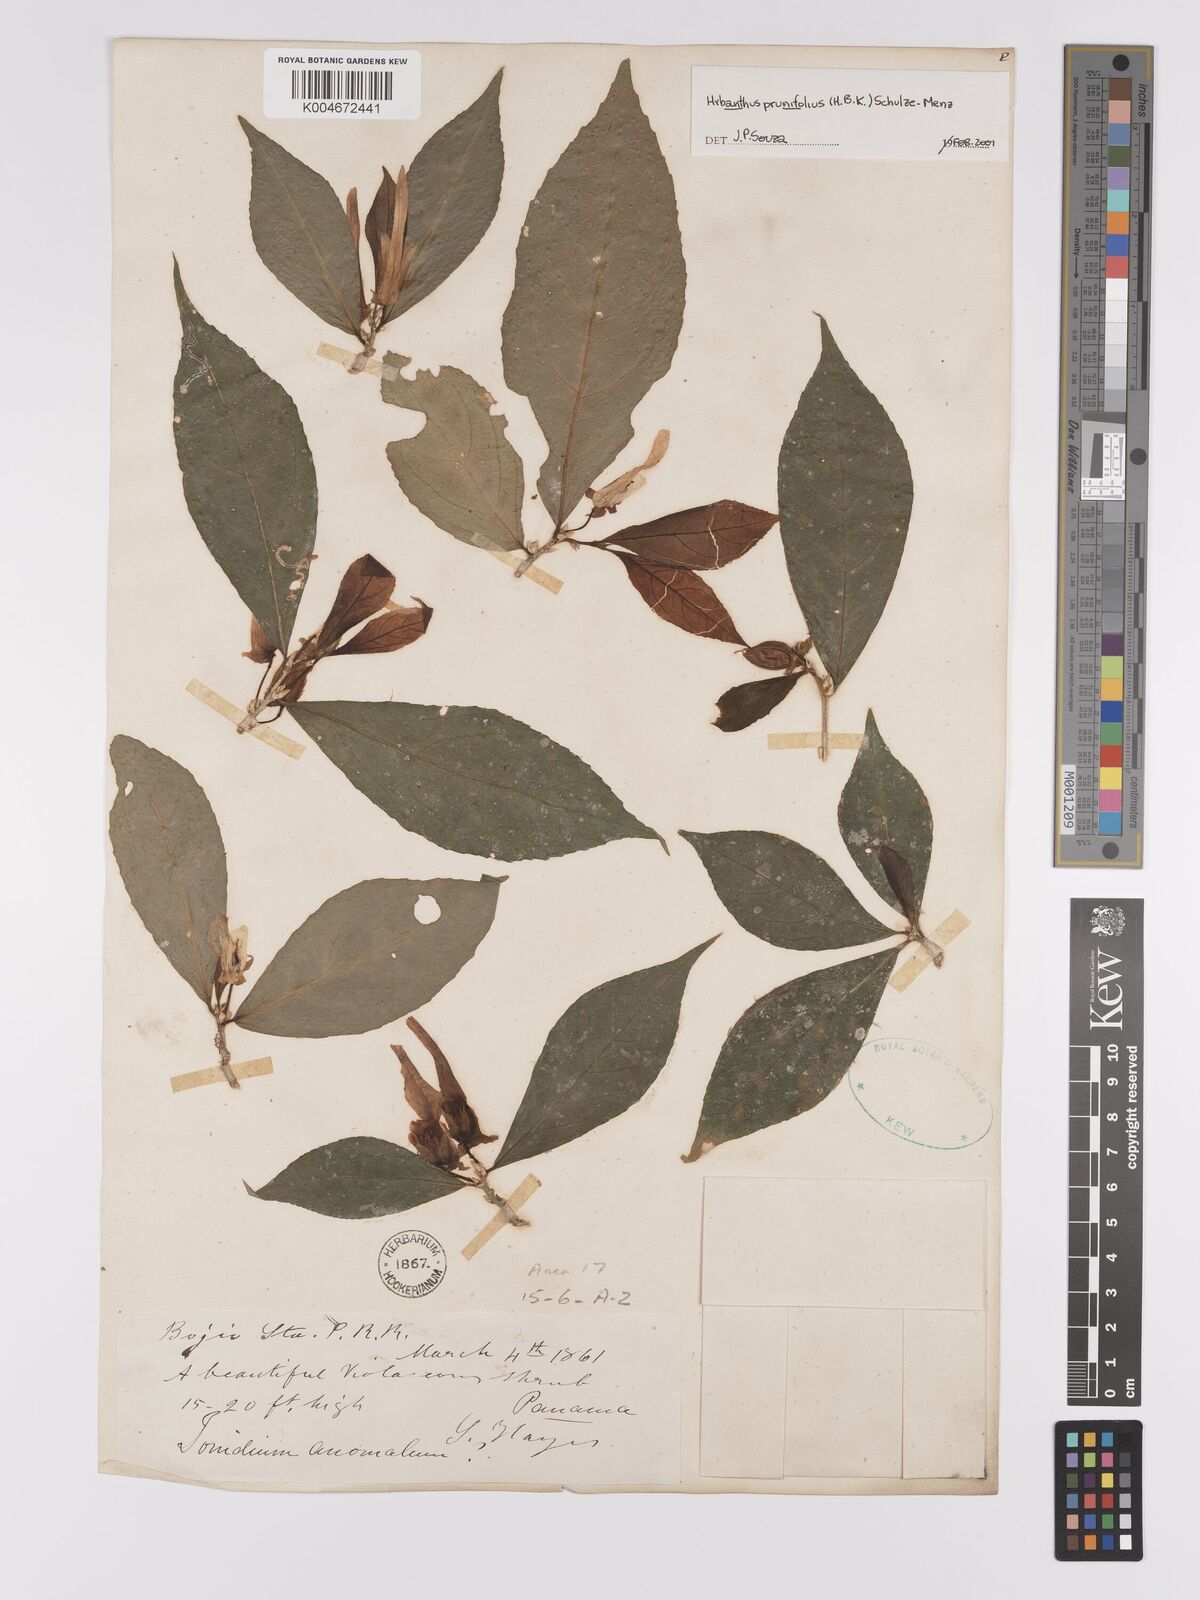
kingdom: Plantae
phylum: Tracheophyta
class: Magnoliopsida
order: Malpighiales
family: Violaceae
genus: Pombalia
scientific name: Pombalia prunifolia
